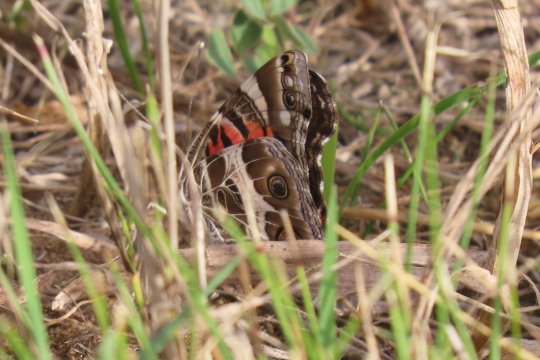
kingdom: Animalia
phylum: Arthropoda
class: Insecta
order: Lepidoptera
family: Nymphalidae
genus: Vanessa
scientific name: Vanessa virginiensis
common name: American Lady
